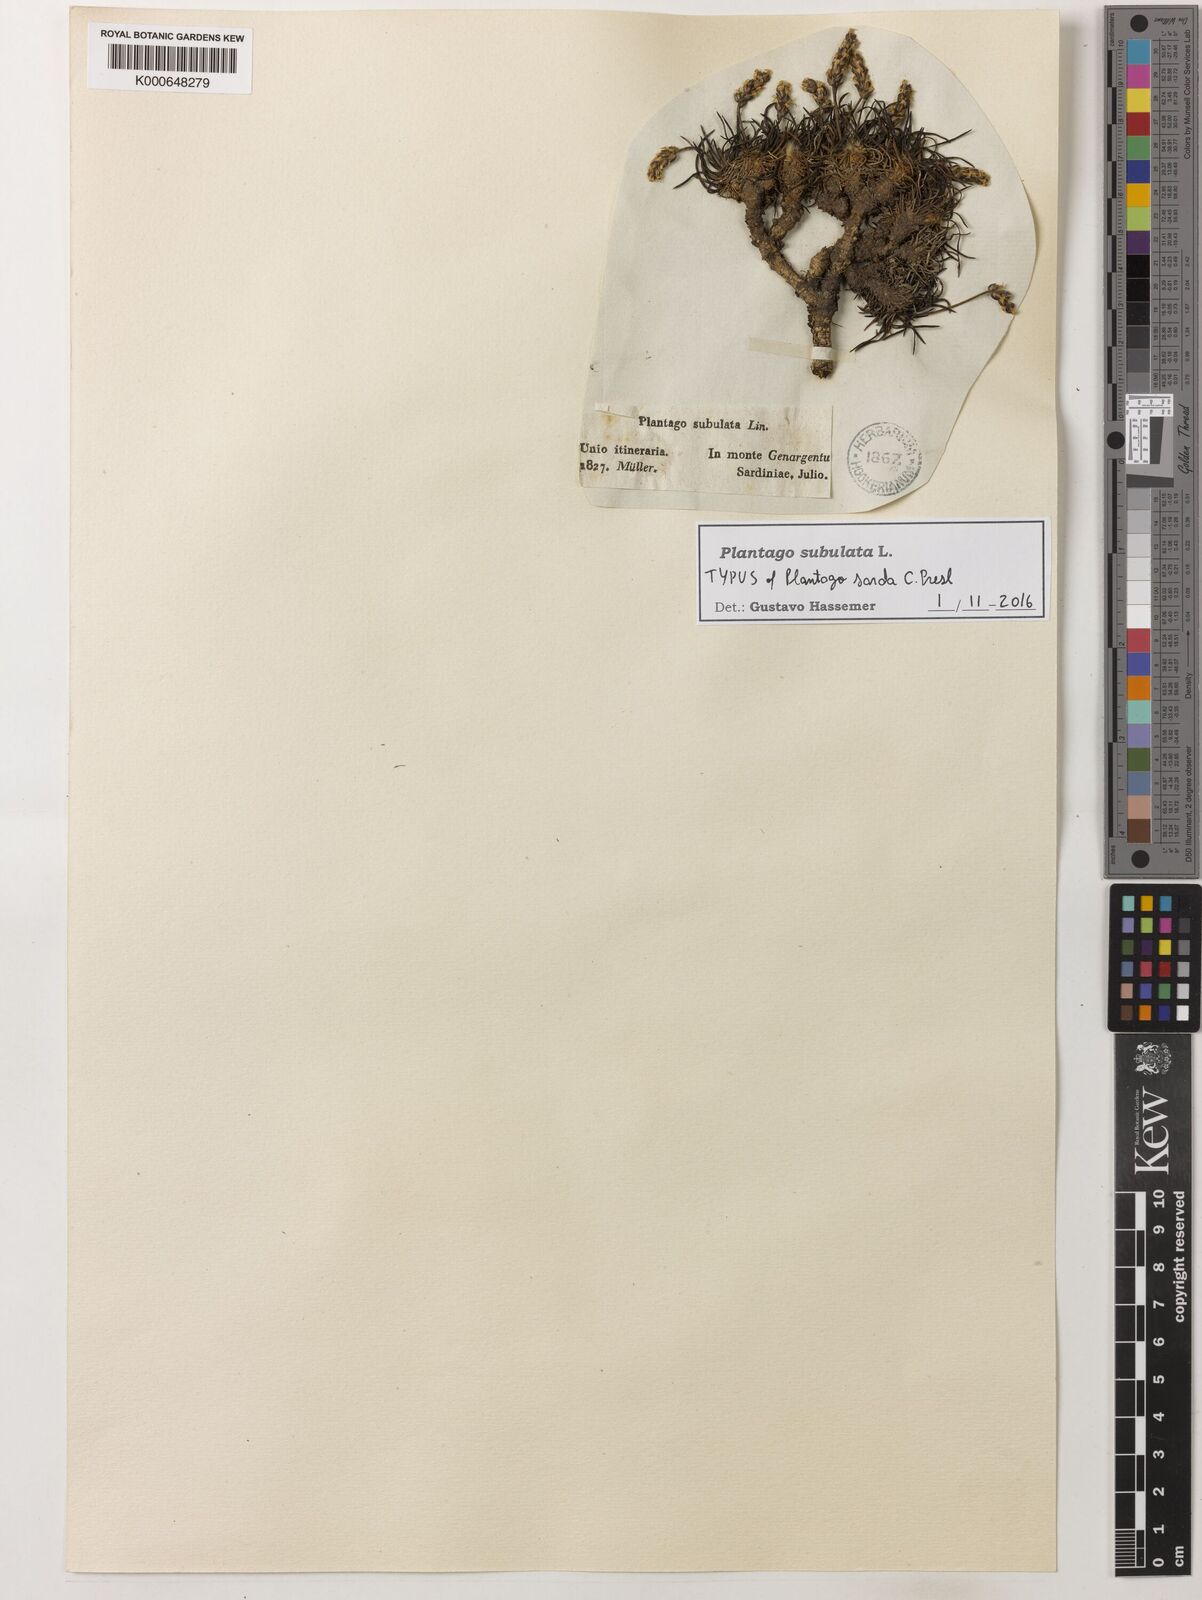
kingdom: Plantae
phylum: Tracheophyta
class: Magnoliopsida
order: Lamiales
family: Plantaginaceae
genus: Plantago
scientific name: Plantago subulata
